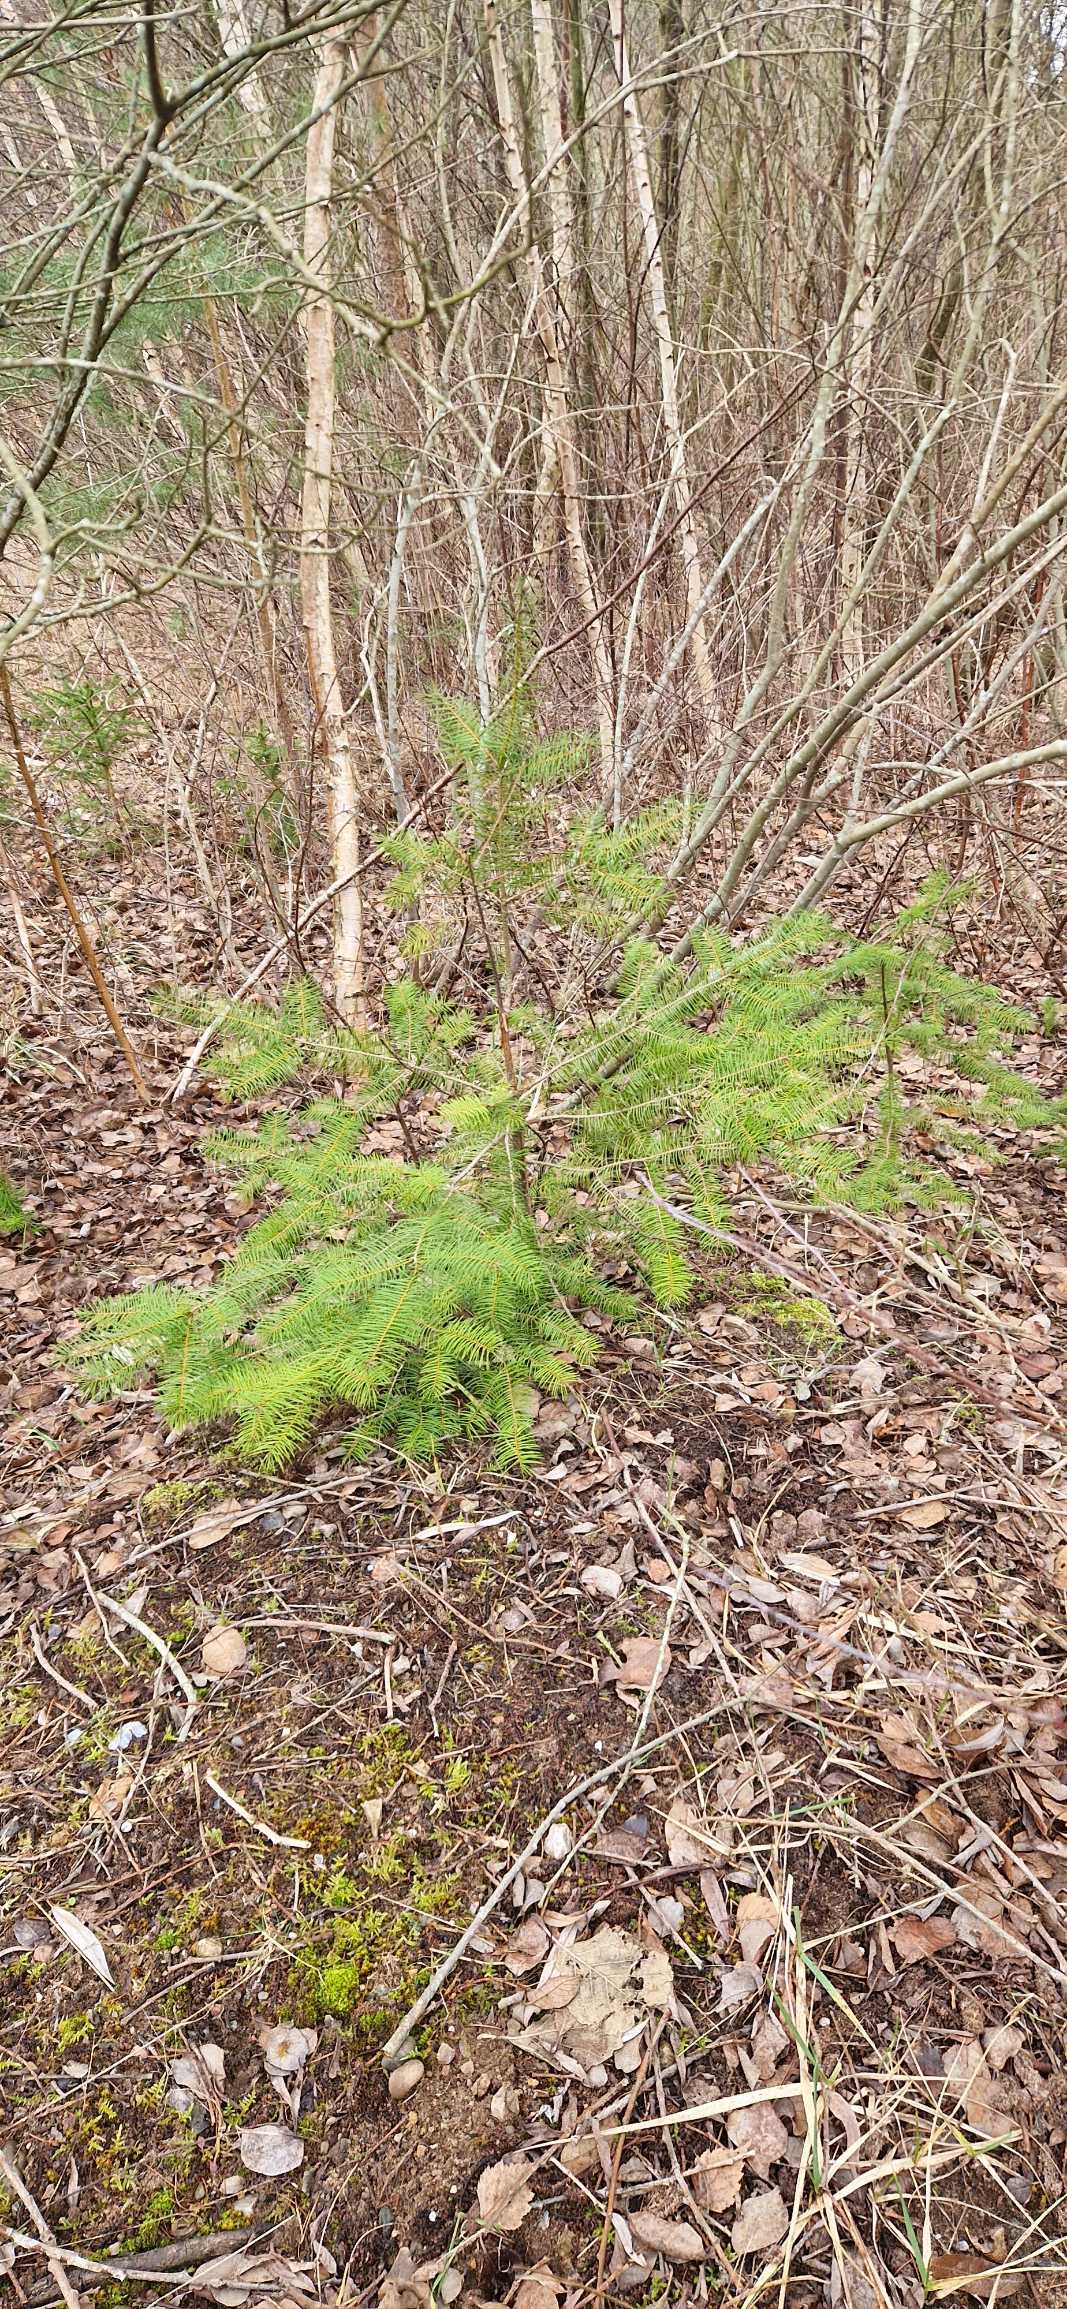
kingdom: Plantae
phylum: Tracheophyta
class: Pinopsida
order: Pinales
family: Pinaceae
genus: Pseudotsuga
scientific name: Pseudotsuga menziesii
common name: Douglasgran
